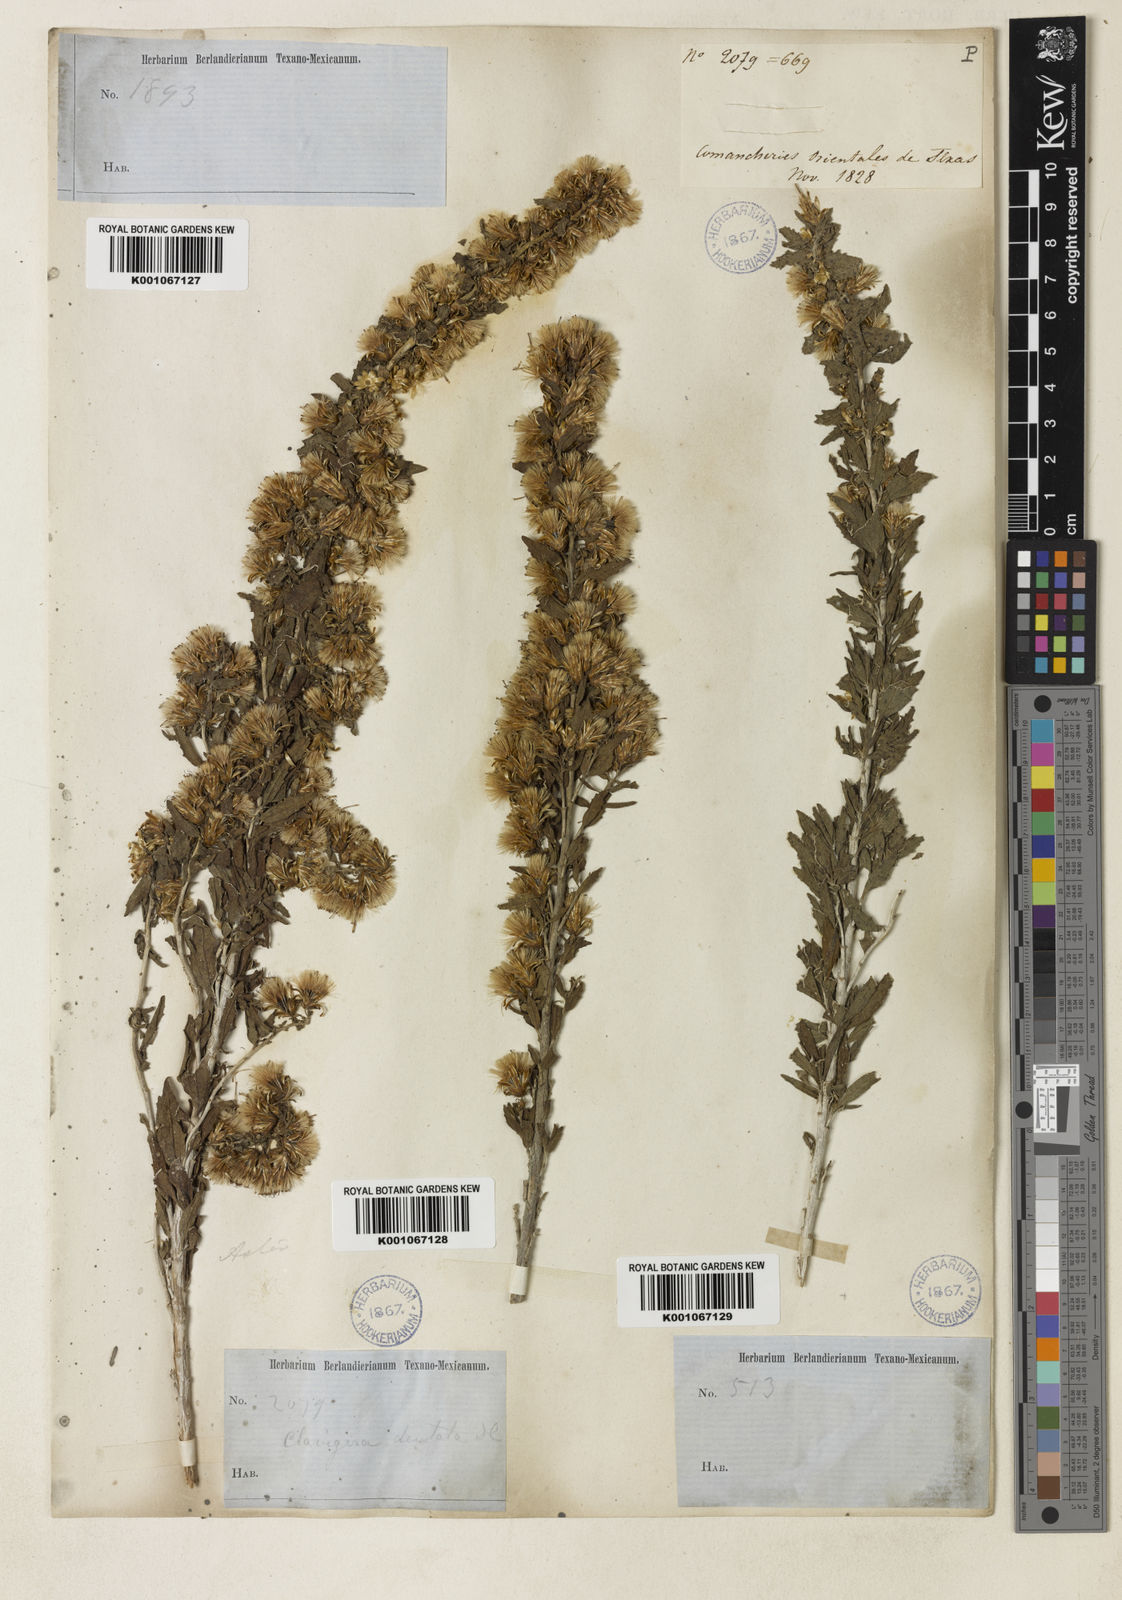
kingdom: Plantae
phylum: Tracheophyta
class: Magnoliopsida
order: Asterales
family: Asteraceae
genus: Brickellia
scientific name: Brickellia dentata
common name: Leafy brickellbush
